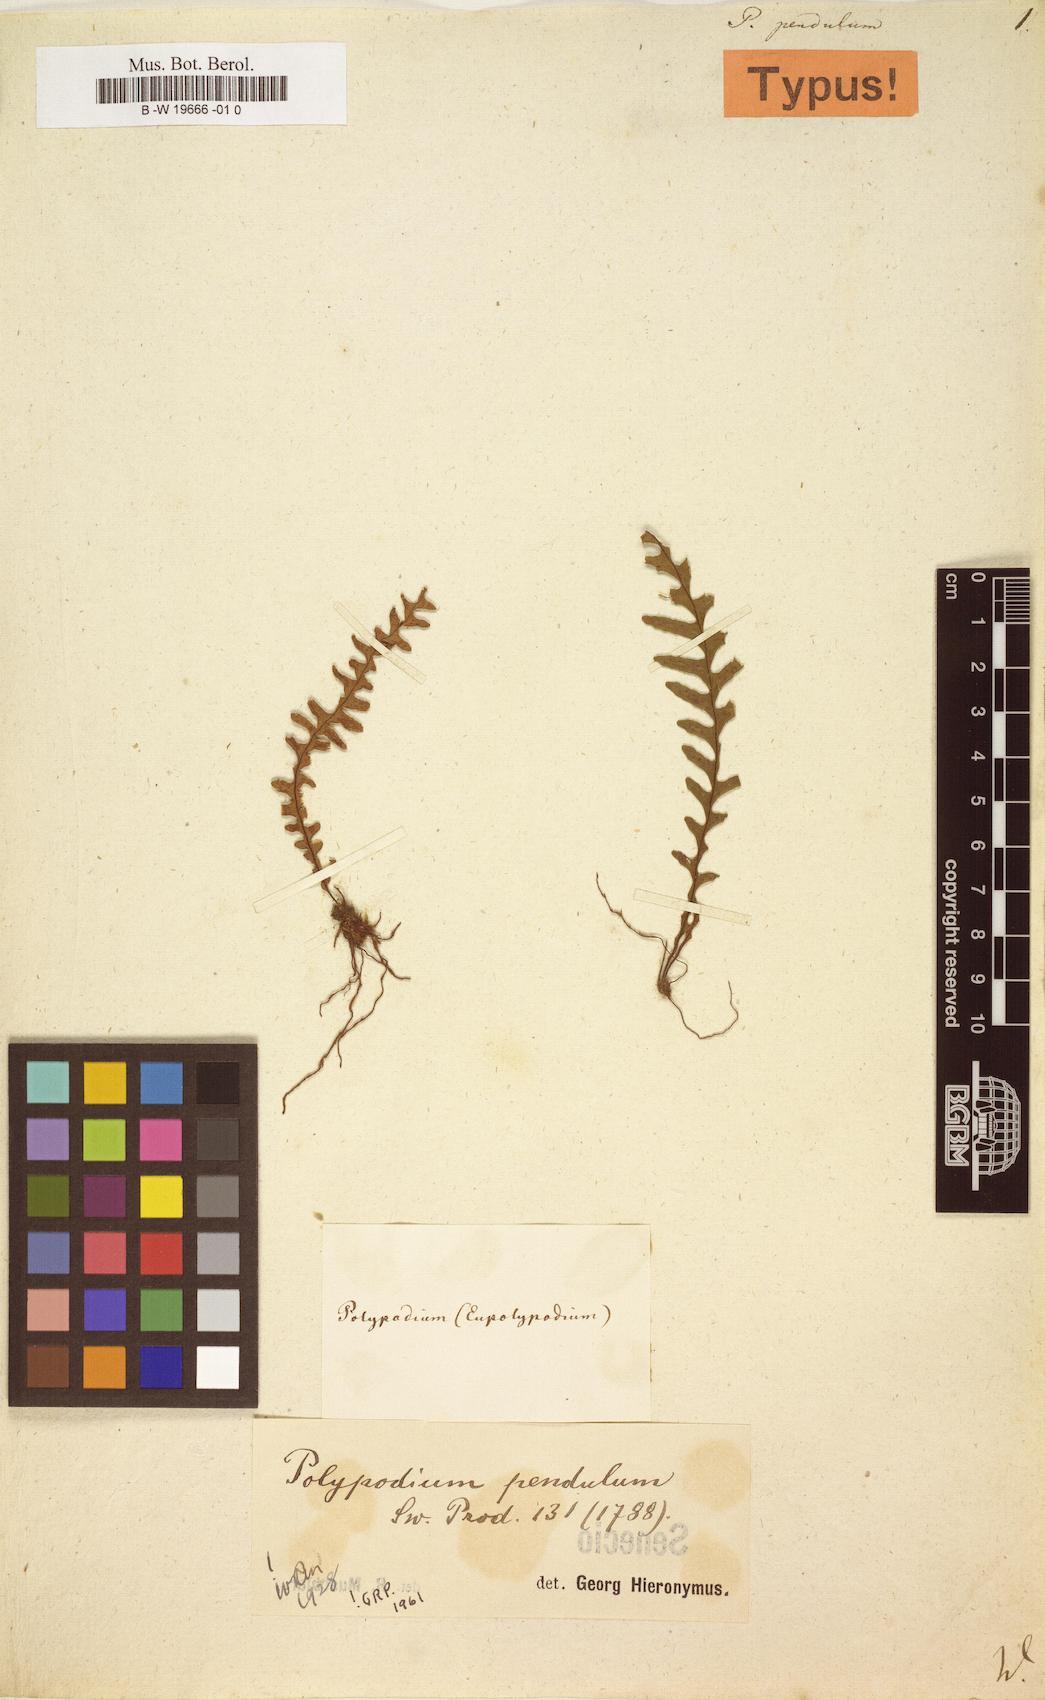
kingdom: Plantae
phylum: Tracheophyta
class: Polypodiopsida
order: Polypodiales
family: Polypodiaceae
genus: Lellingeria
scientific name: Lellingeria pendula
